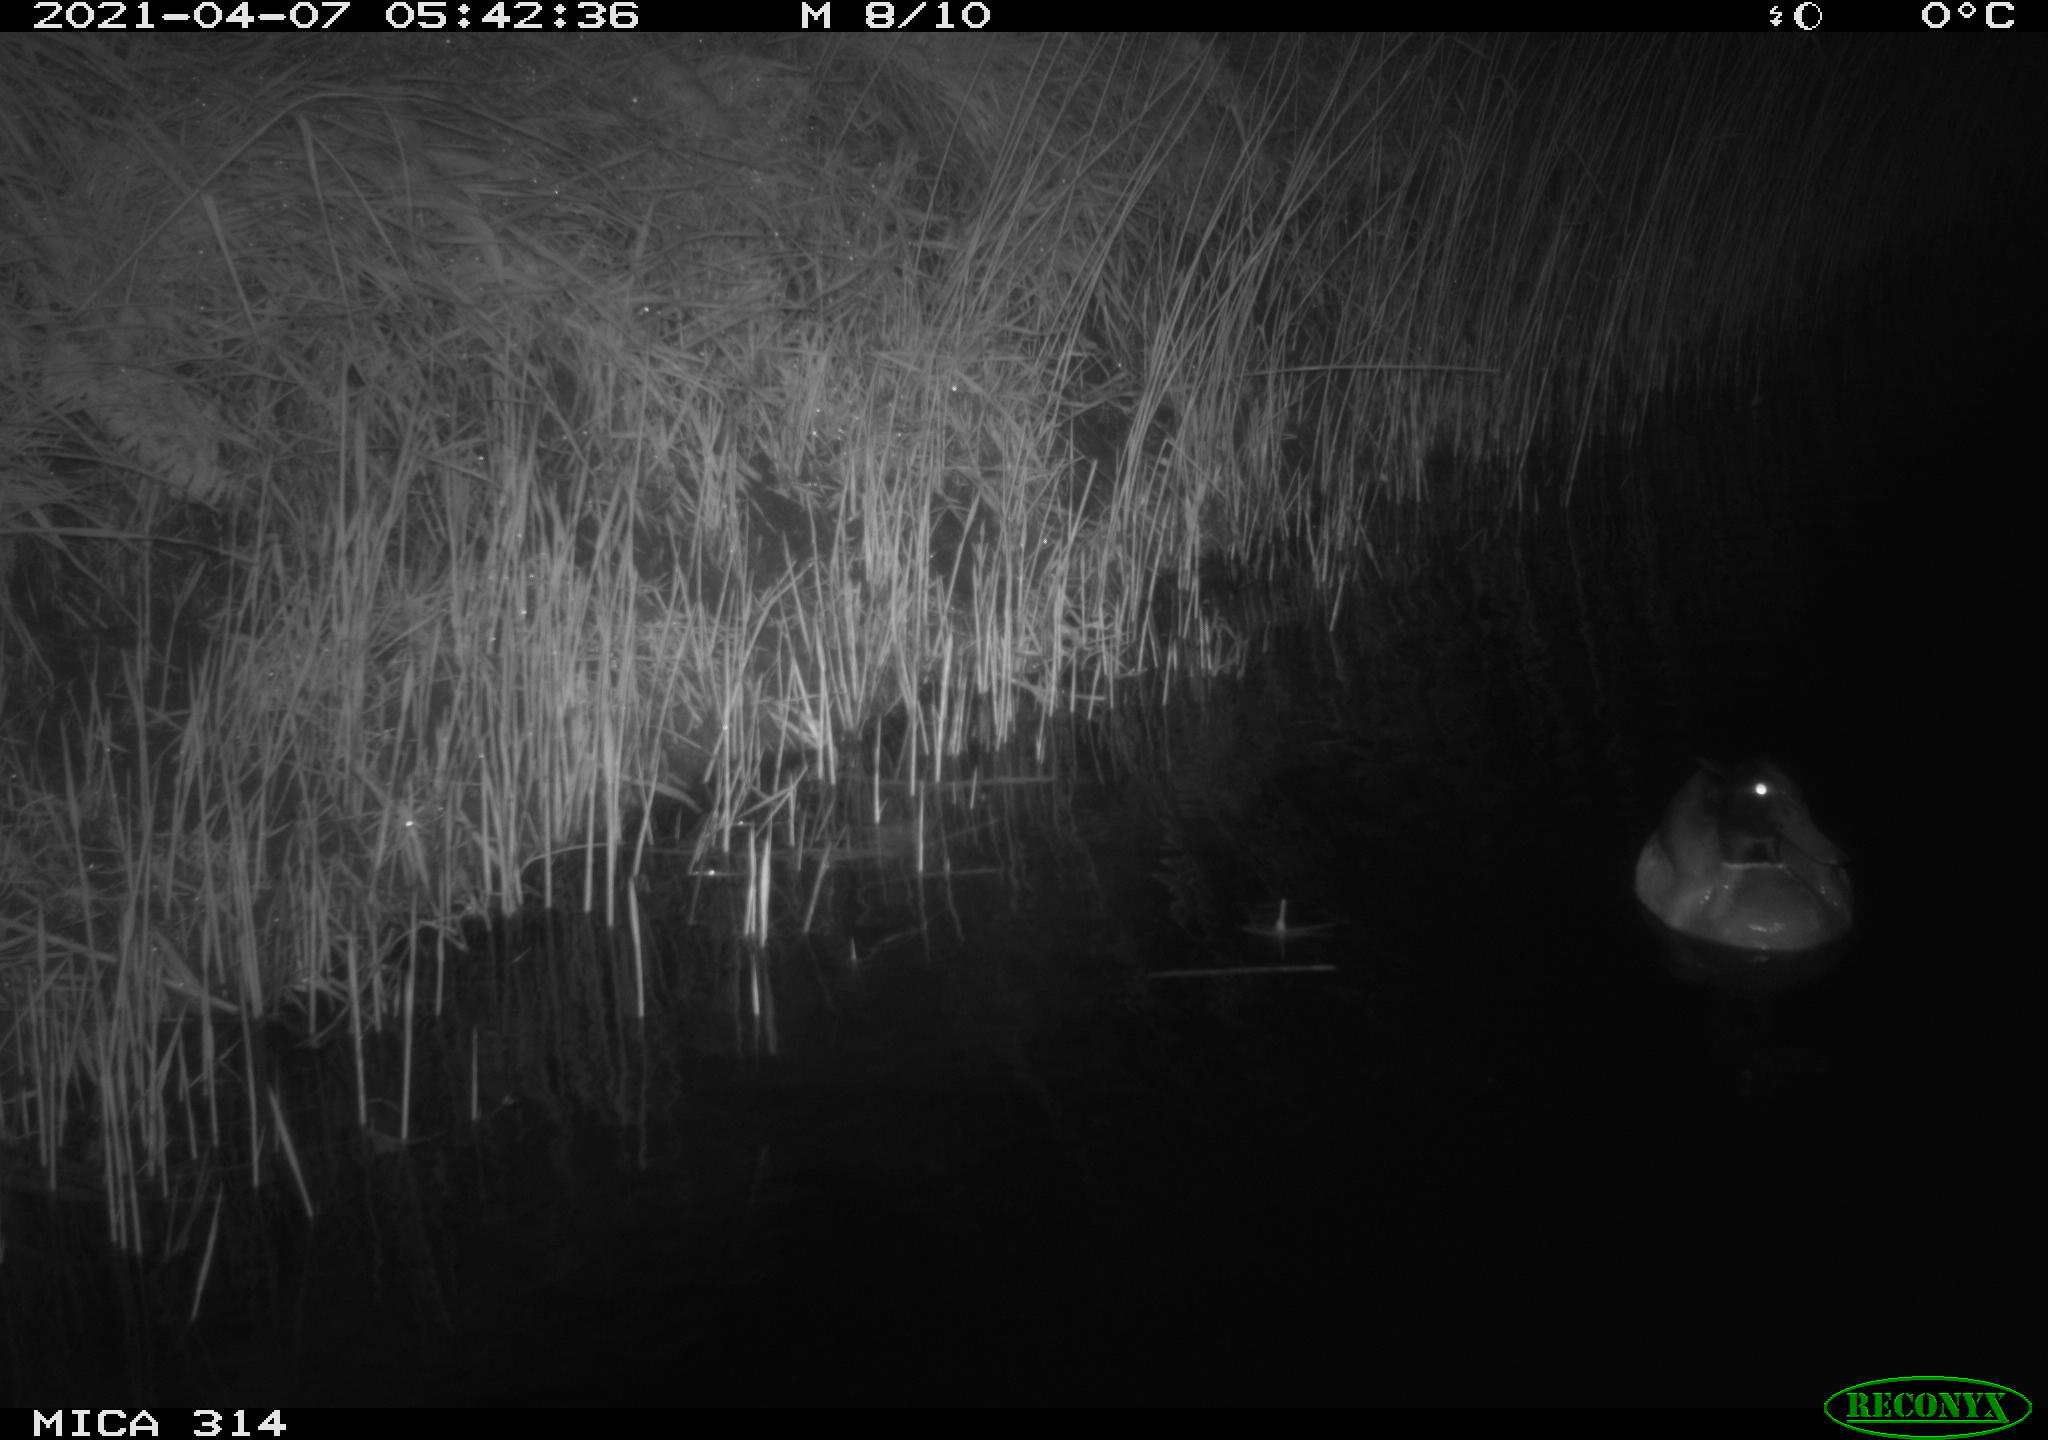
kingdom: Animalia
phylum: Chordata
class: Aves
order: Anseriformes
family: Anatidae
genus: Anas
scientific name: Anas platyrhynchos
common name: Mallard
